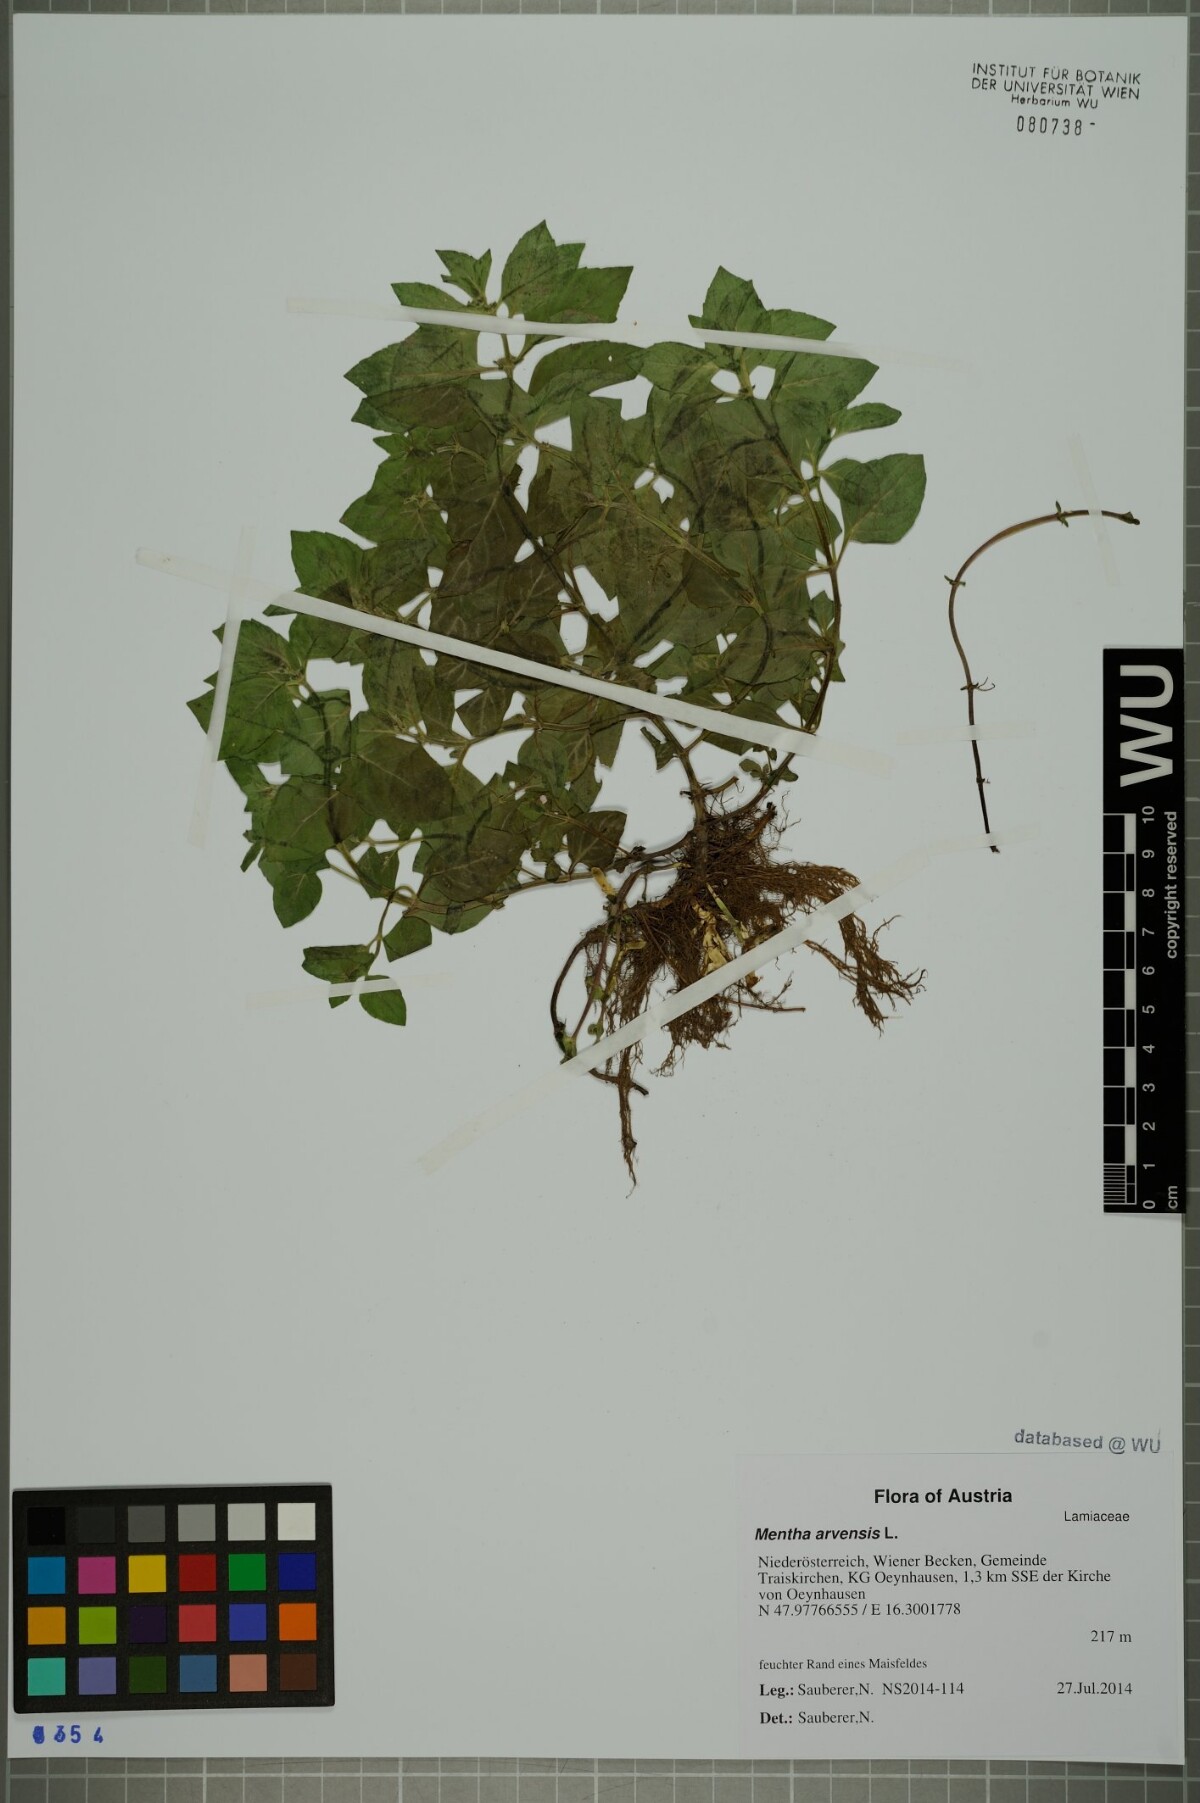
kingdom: Plantae
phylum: Tracheophyta
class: Magnoliopsida
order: Lamiales
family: Lamiaceae
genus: Mentha
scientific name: Mentha arvensis
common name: Corn mint
